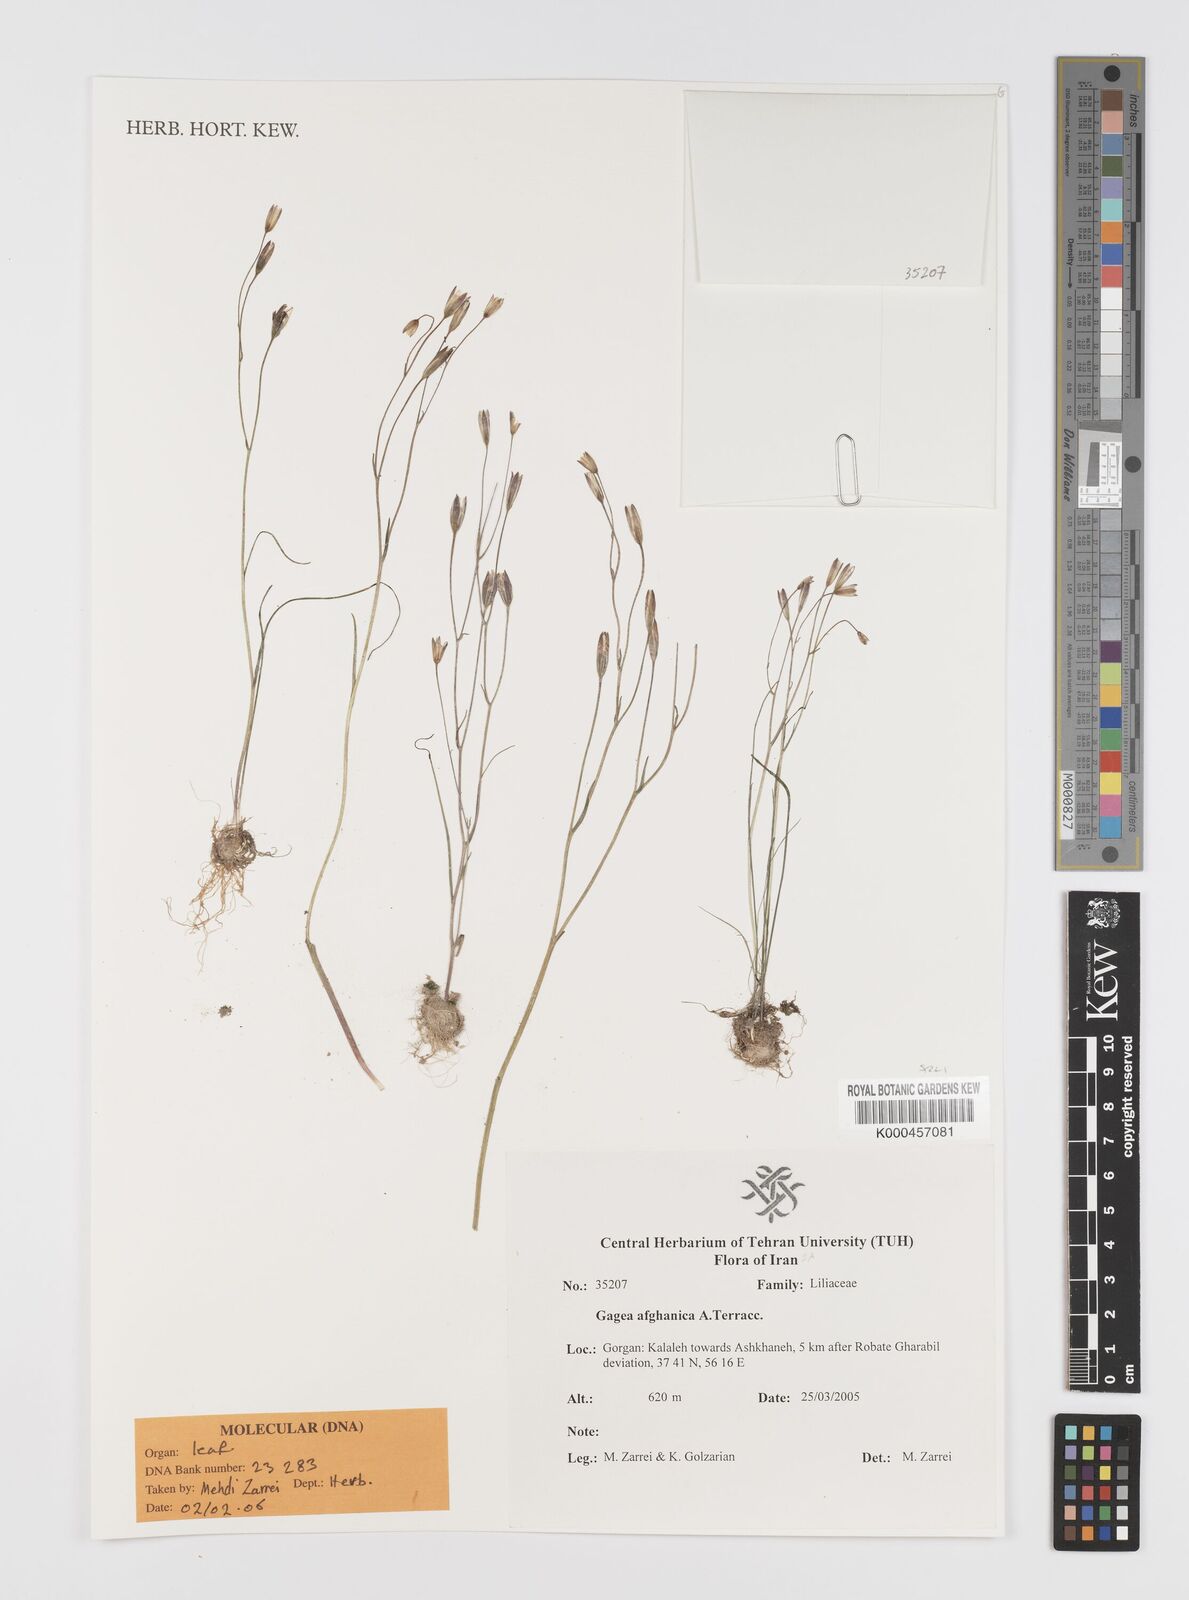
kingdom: Plantae
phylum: Tracheophyta
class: Liliopsida
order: Liliales
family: Liliaceae
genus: Gagea
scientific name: Gagea afghanica
